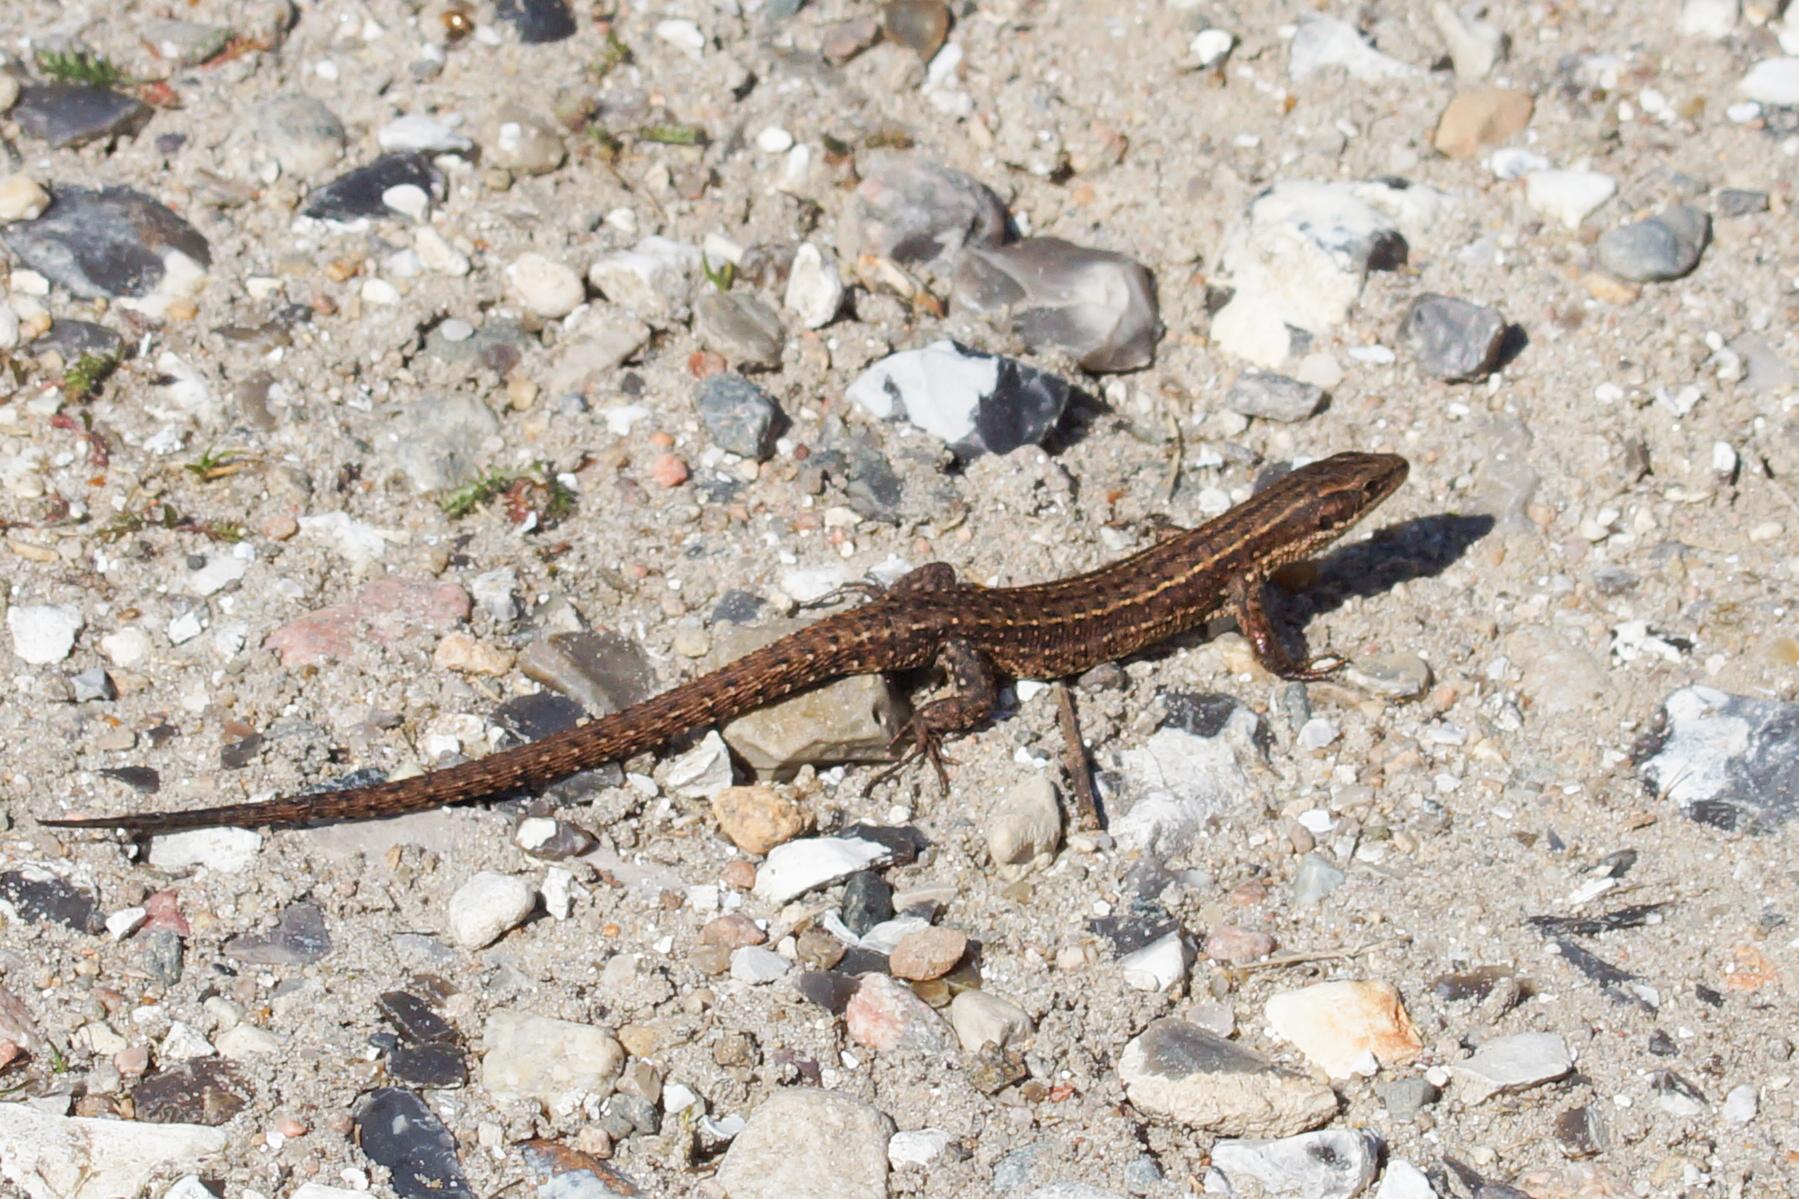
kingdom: Animalia
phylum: Chordata
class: Squamata
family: Lacertidae
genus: Zootoca
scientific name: Zootoca vivipara
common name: Skovfirben
